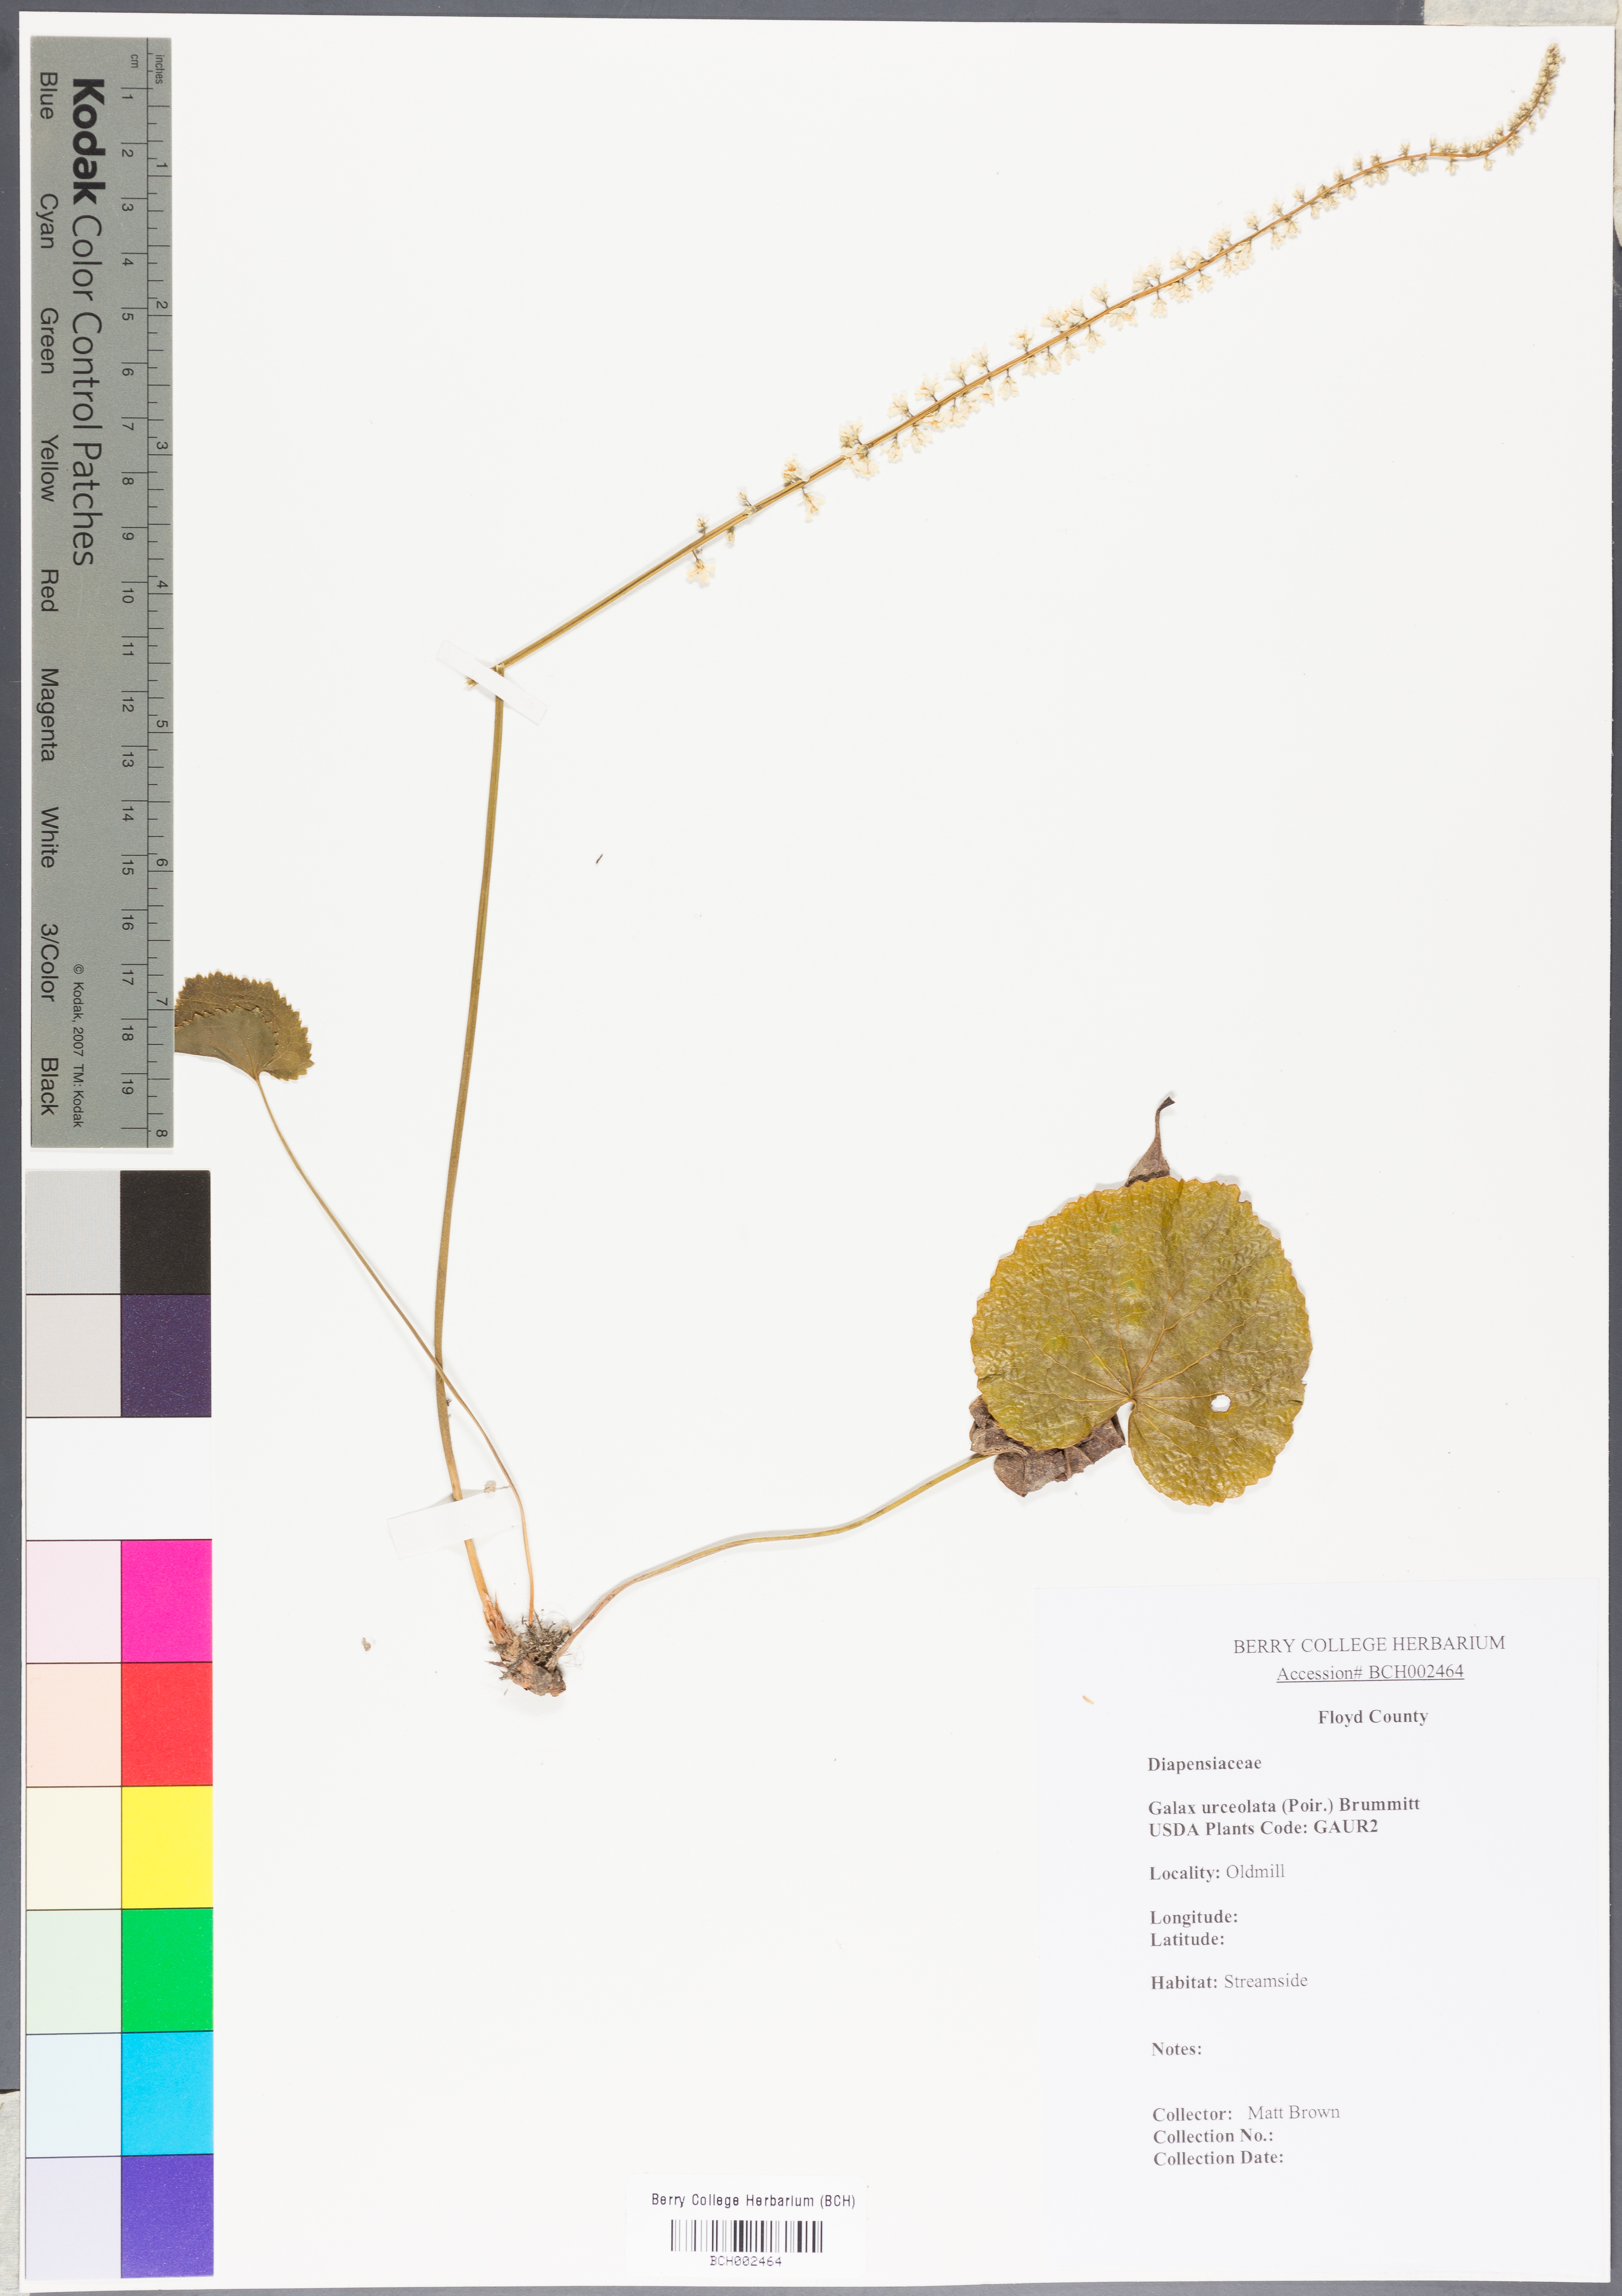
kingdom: Plantae
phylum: Tracheophyta
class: Magnoliopsida
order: Ericales
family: Diapensiaceae
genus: Galax
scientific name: Galax urceolata
